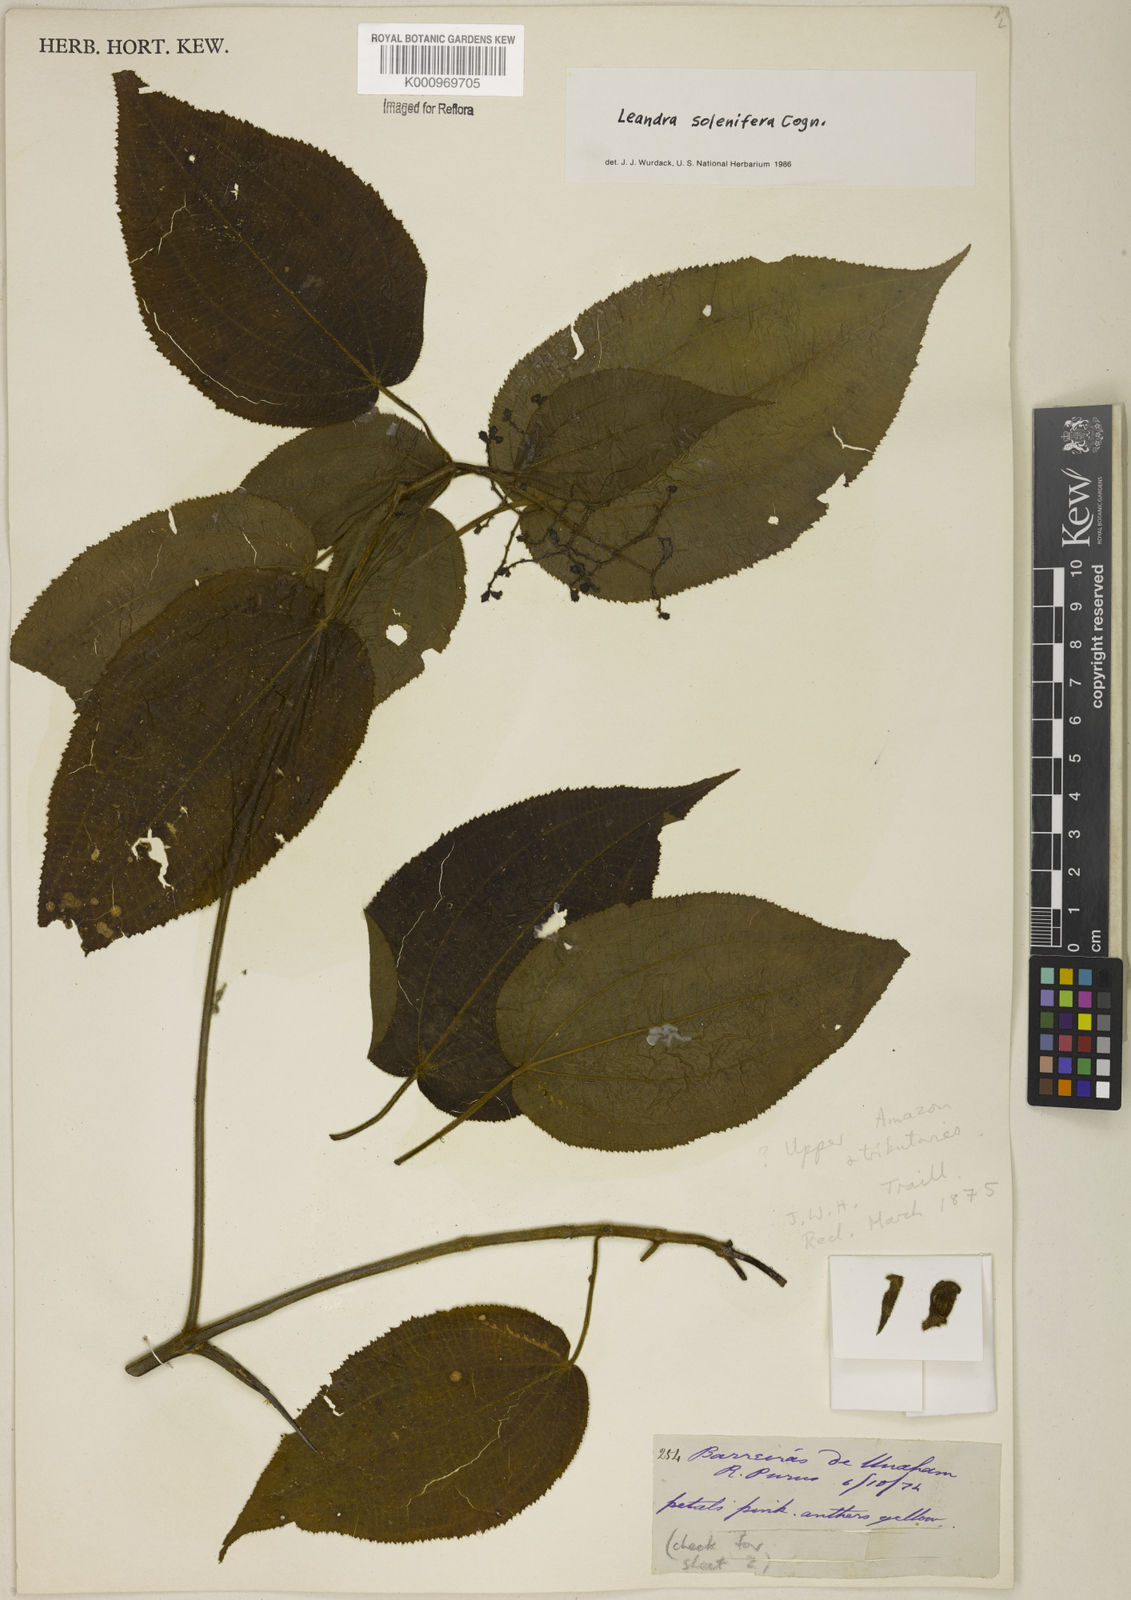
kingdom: Plantae
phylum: Tracheophyta
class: Magnoliopsida
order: Myrtales
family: Melastomataceae
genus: Miconia
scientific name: Miconia solenifera
